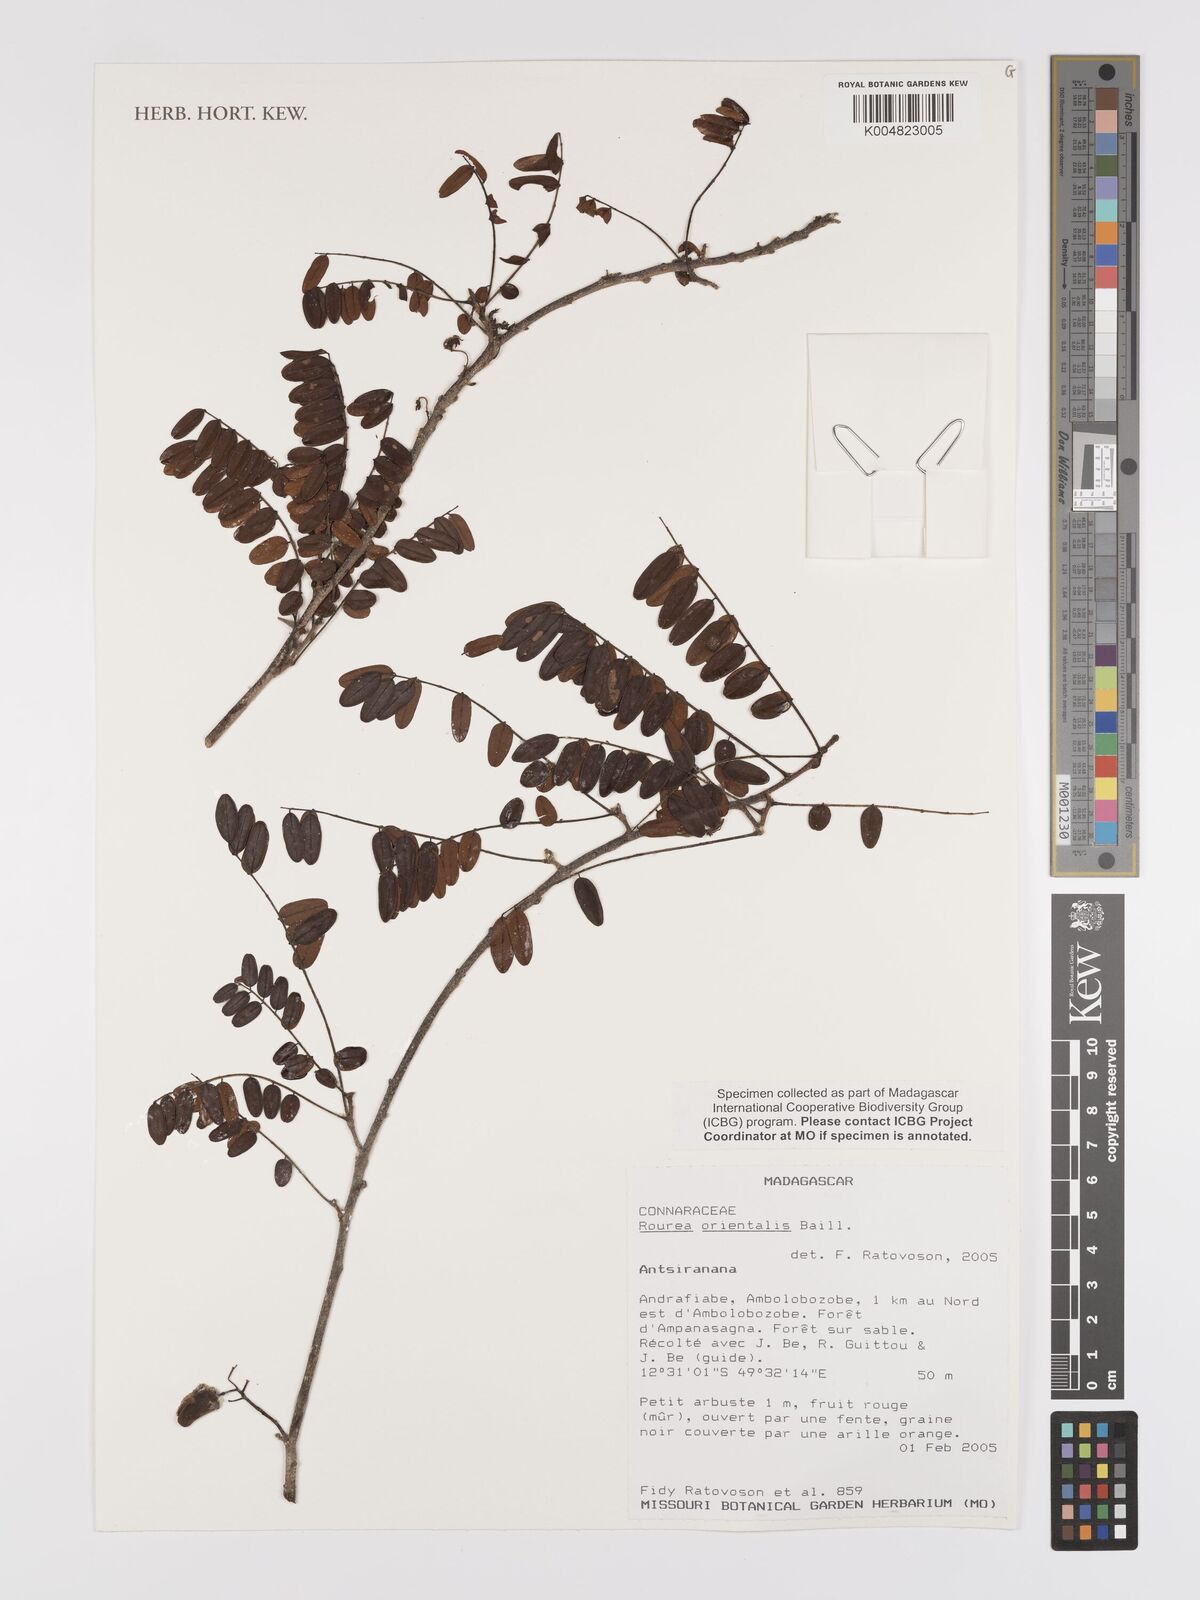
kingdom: Plantae
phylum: Tracheophyta
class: Magnoliopsida
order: Oxalidales
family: Connaraceae
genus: Rourea
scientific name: Rourea orientalis
